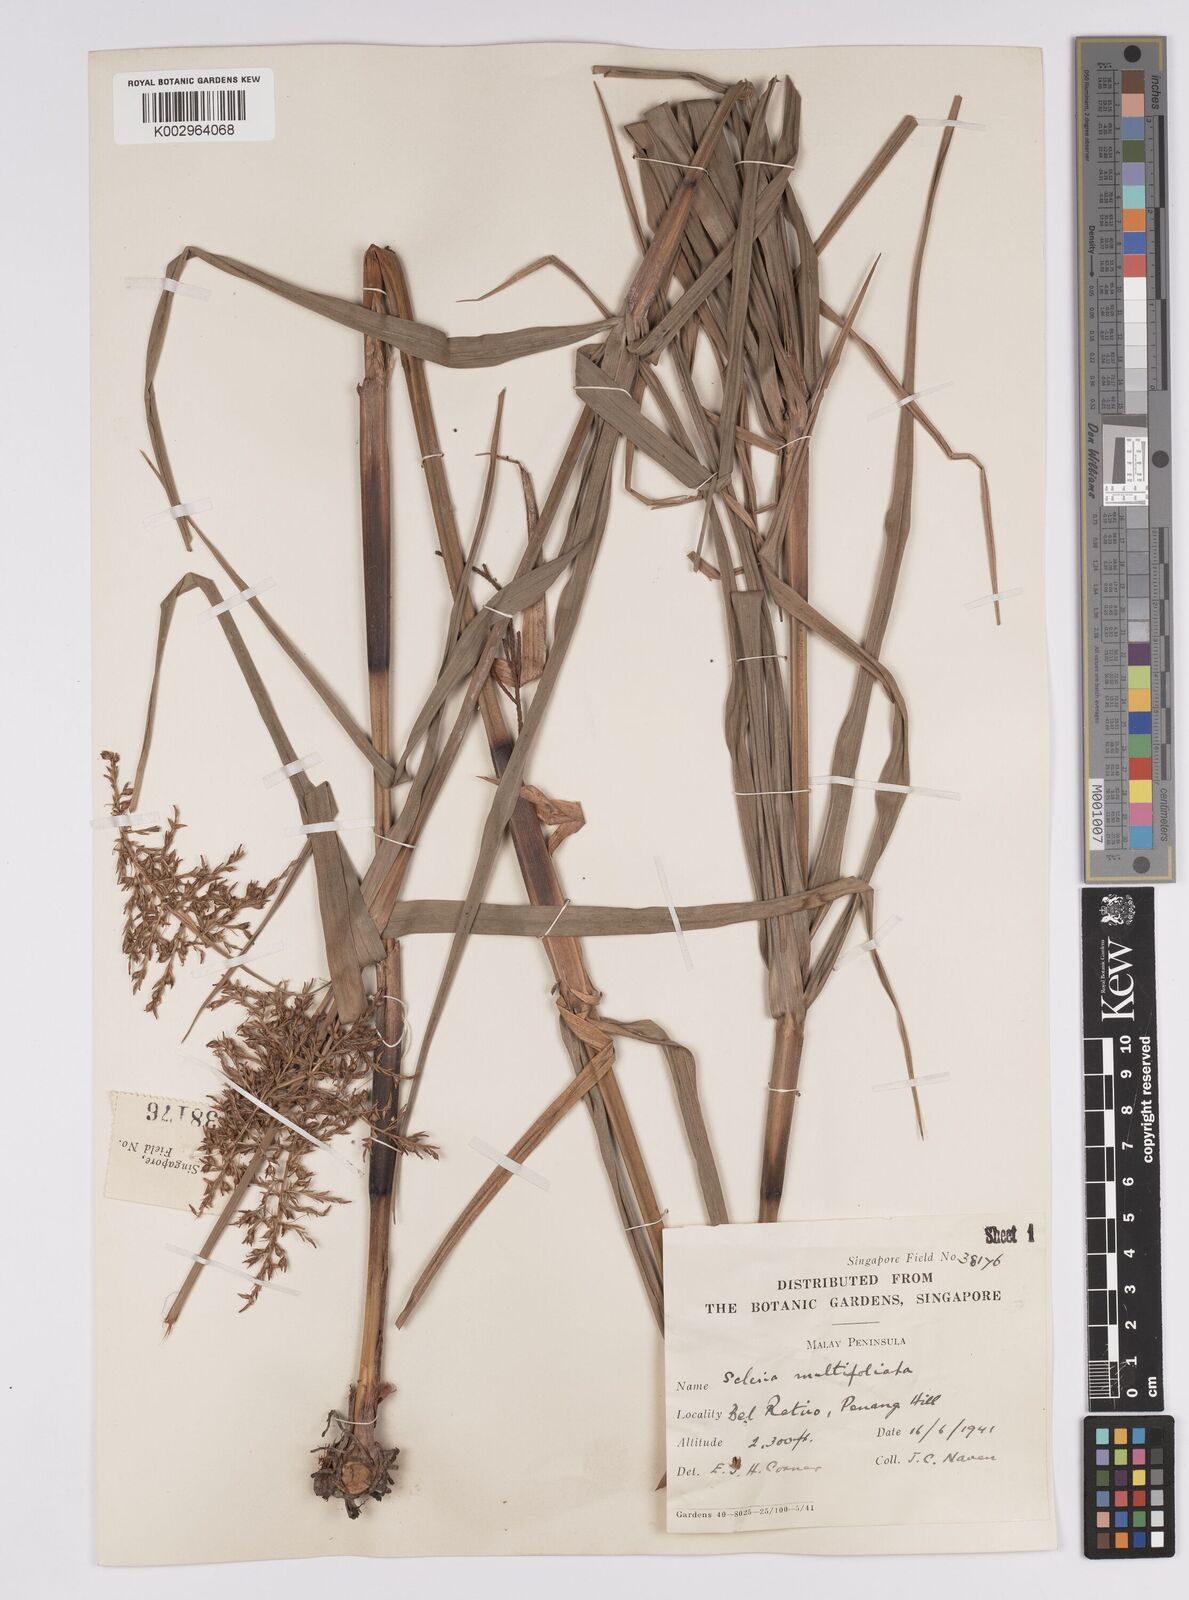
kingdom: Plantae
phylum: Tracheophyta
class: Liliopsida
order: Poales
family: Cyperaceae
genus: Scleria
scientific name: Scleria purpurascens
